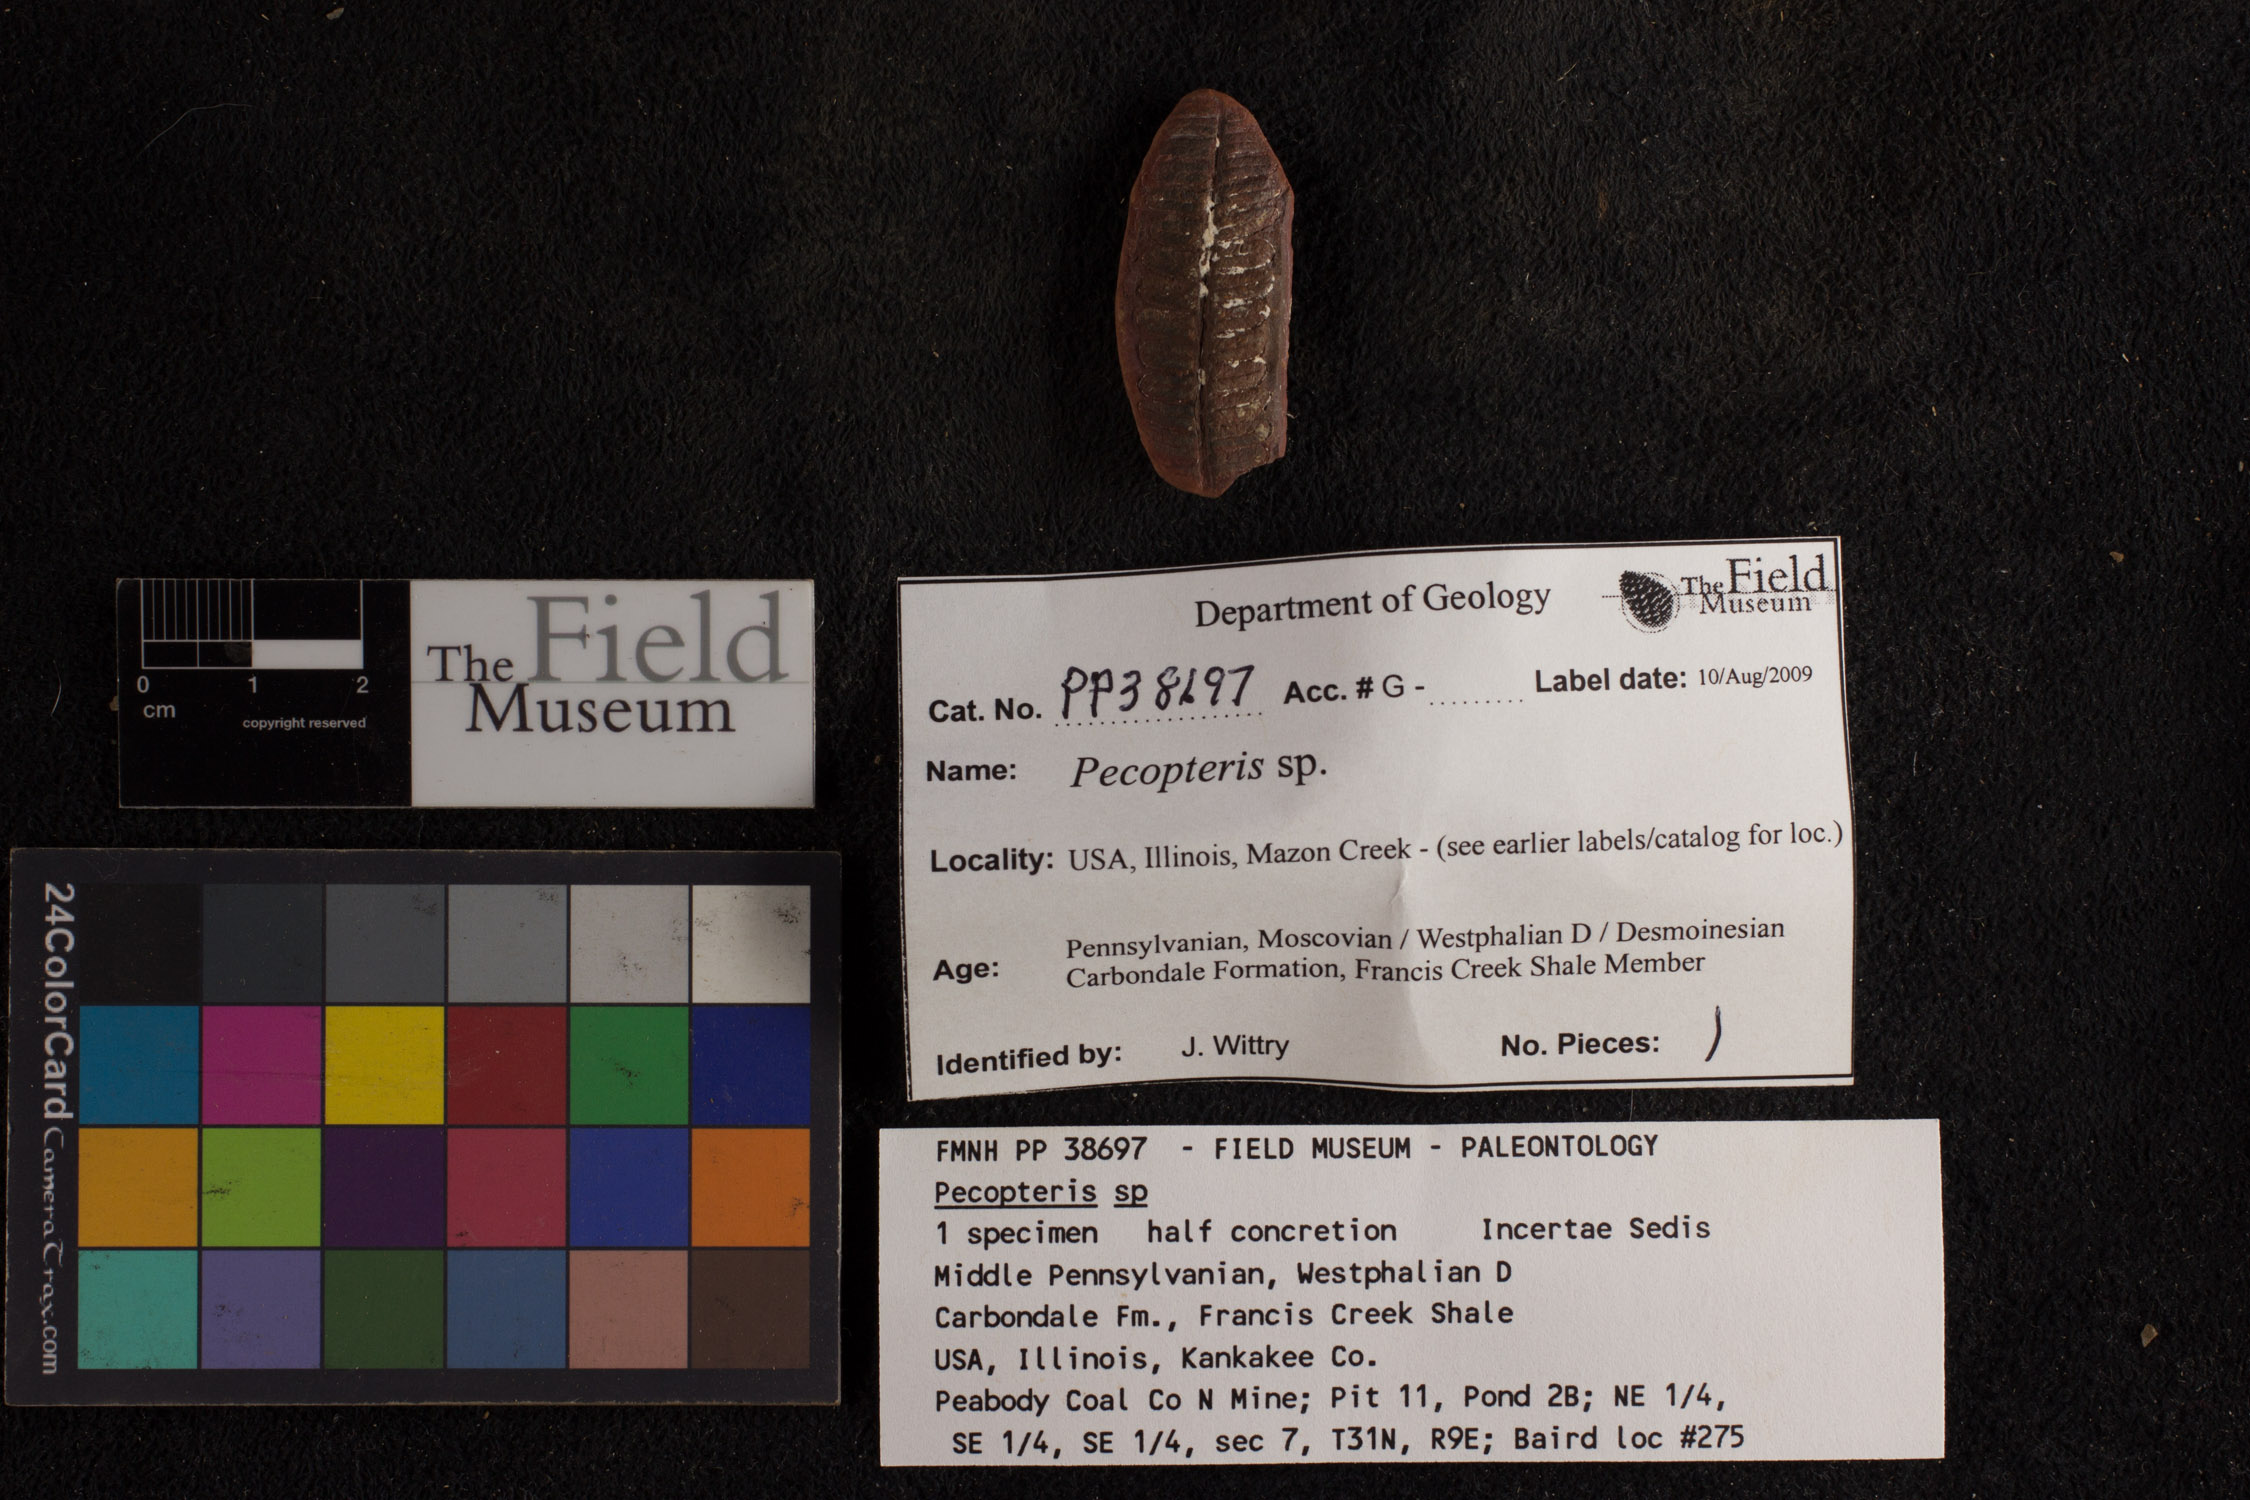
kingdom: Plantae
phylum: Tracheophyta
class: Polypodiopsida
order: Marattiales
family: Asterothecaceae
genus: Pecopteris
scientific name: Pecopteris
